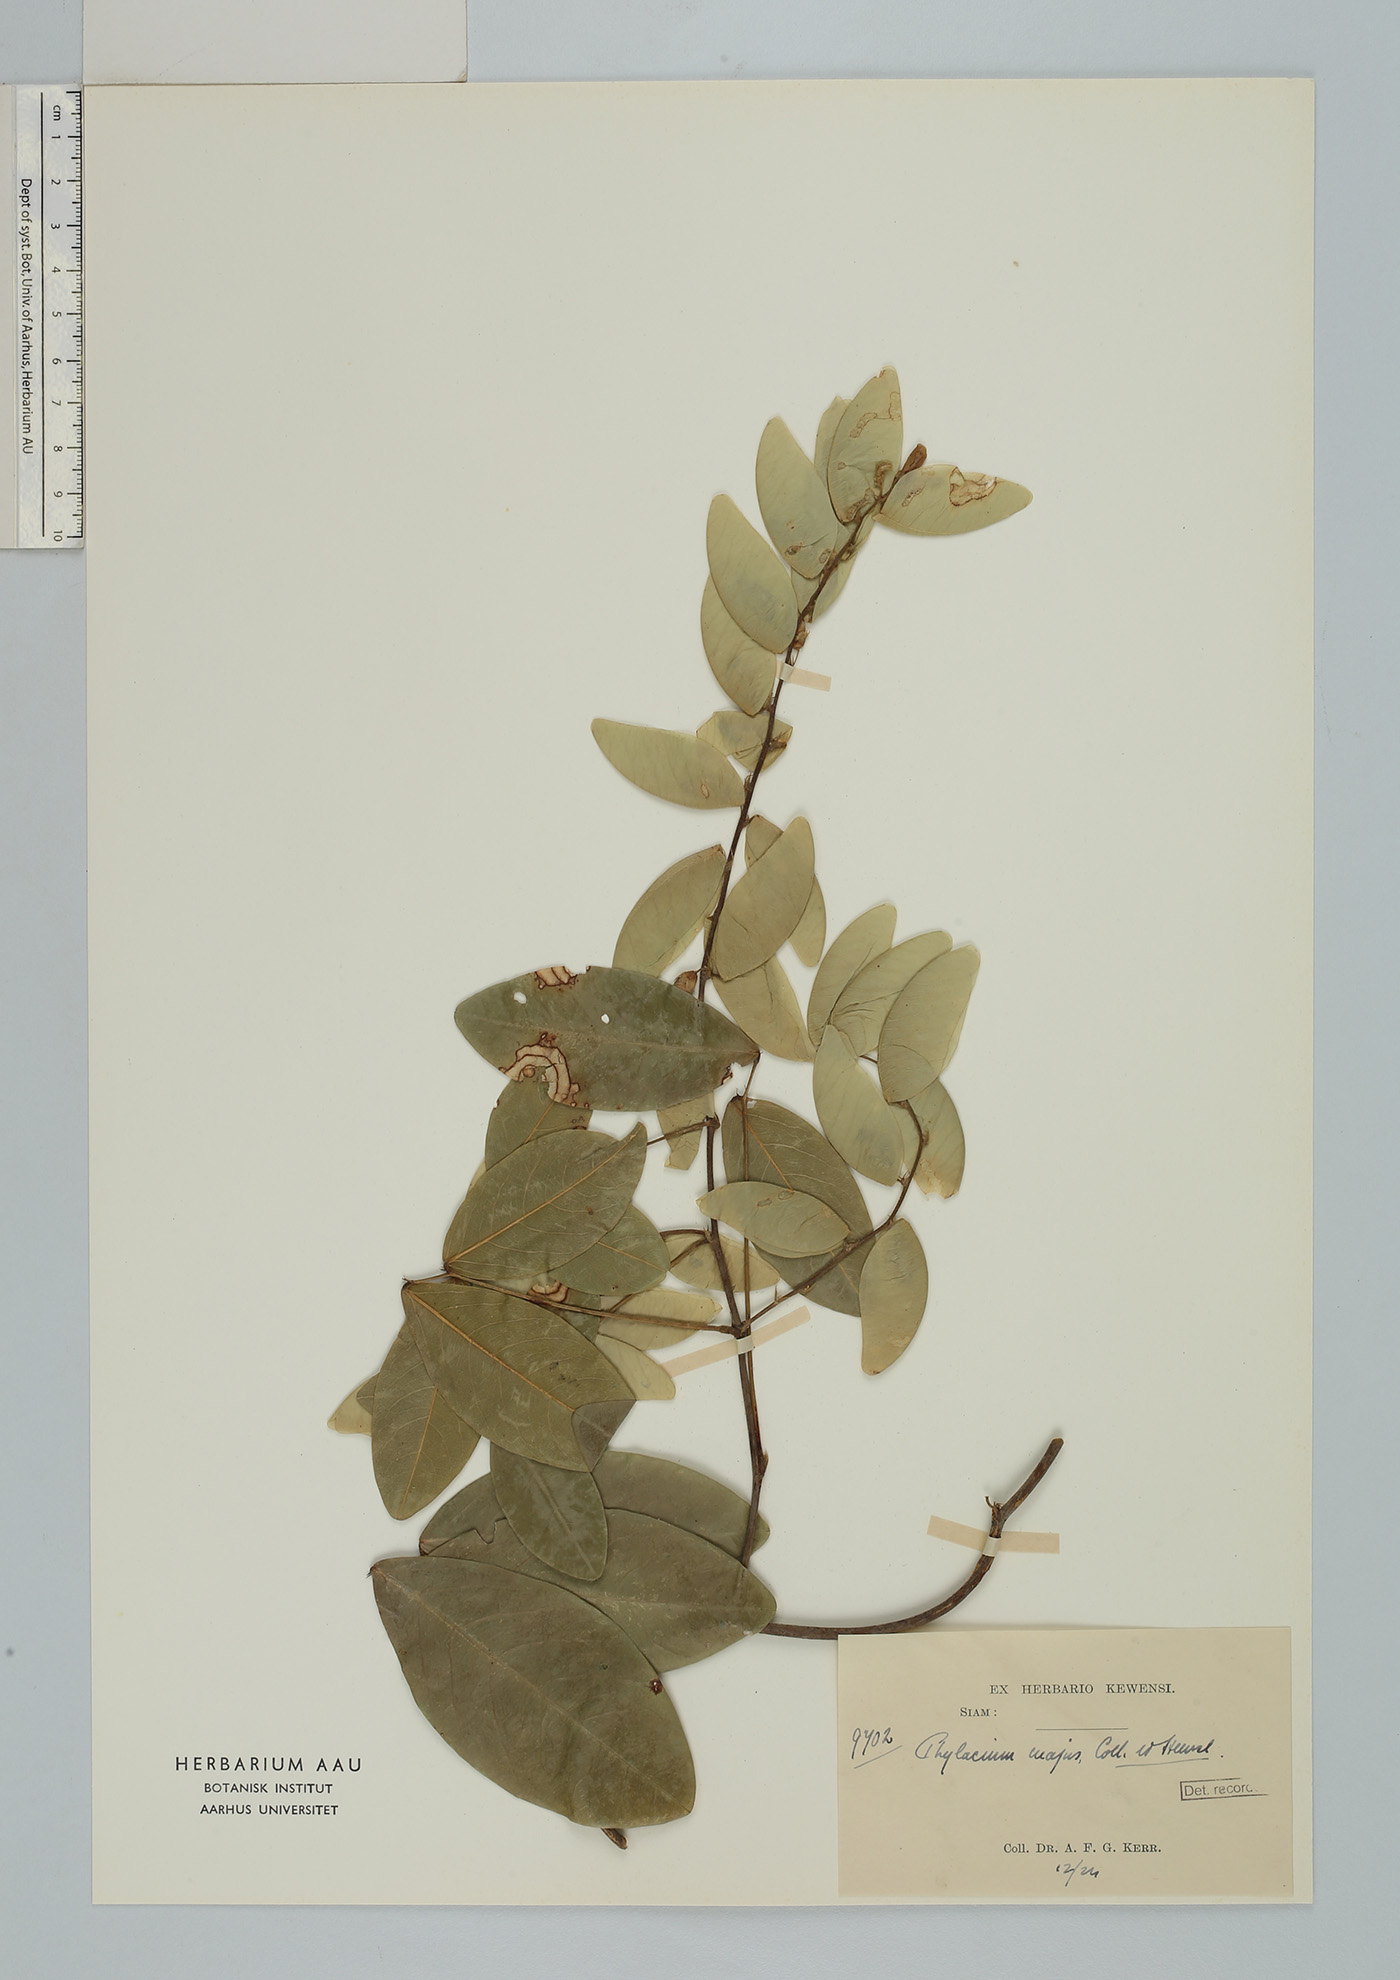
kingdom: Plantae
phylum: Tracheophyta
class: Magnoliopsida
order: Fabales
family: Fabaceae
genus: Phylacium
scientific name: Phylacium majus
